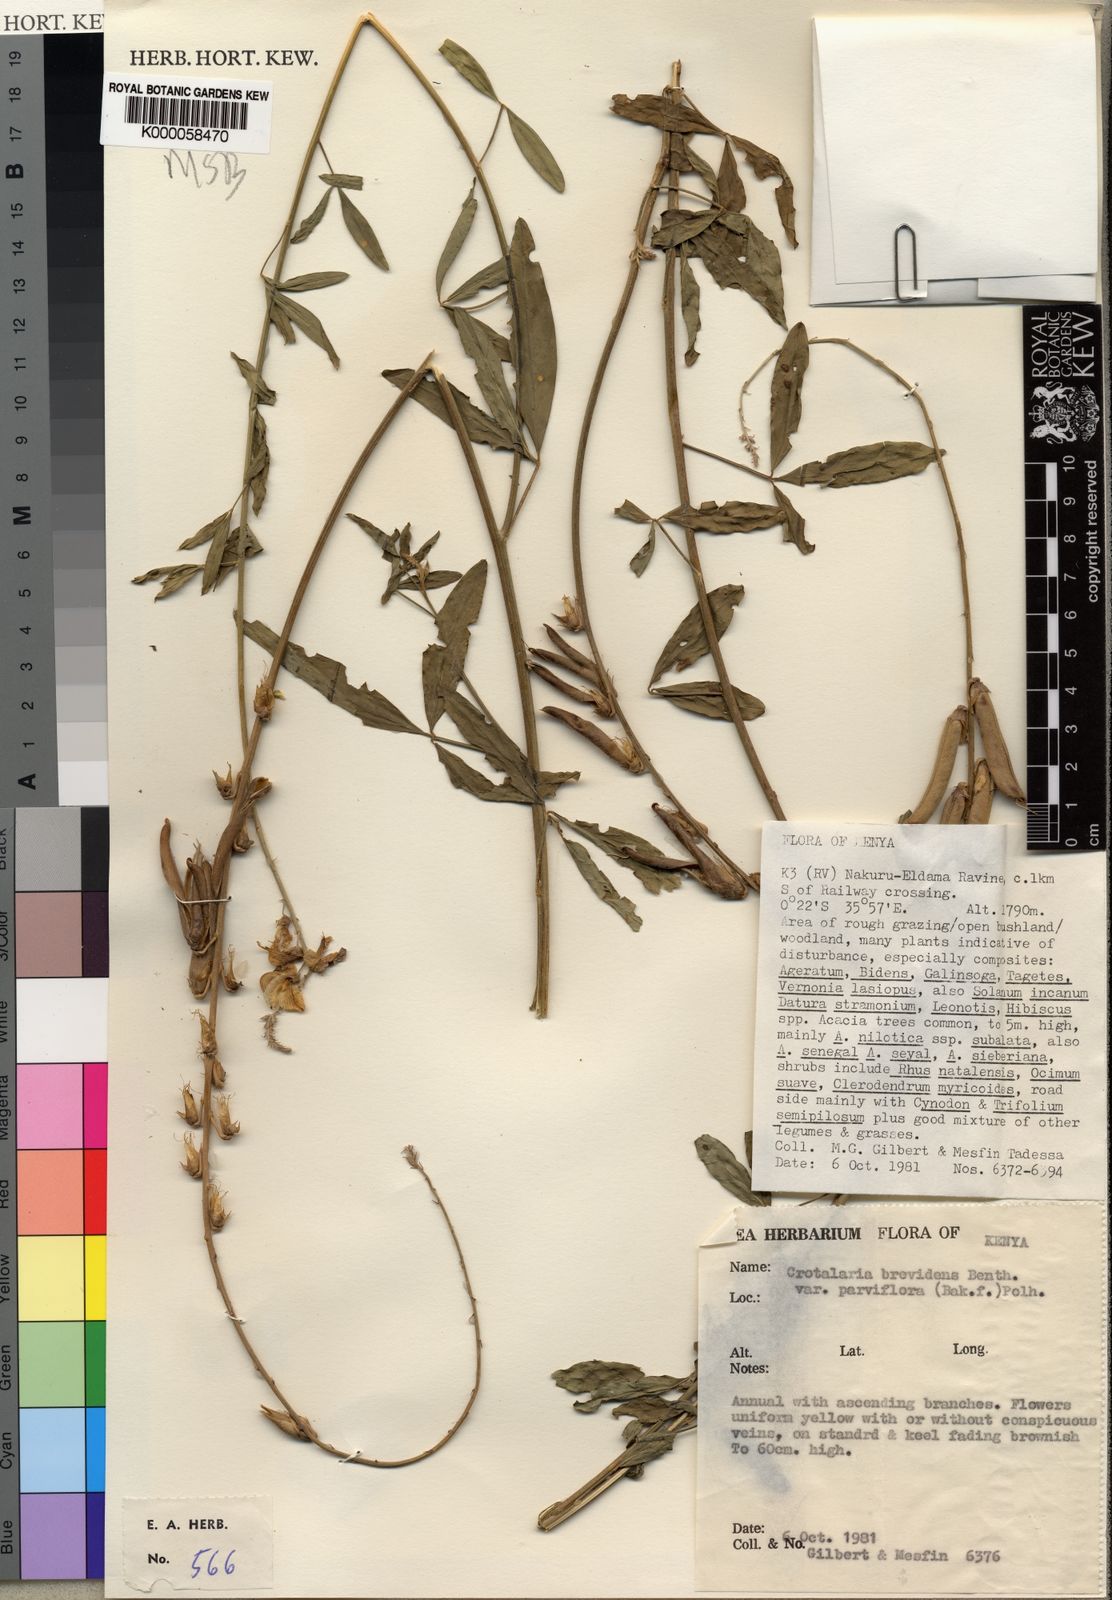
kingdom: Plantae
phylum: Tracheophyta
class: Magnoliopsida
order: Fabales
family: Fabaceae
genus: Crotalaria
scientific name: Crotalaria brevidens
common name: Ethiopian rattlebox
